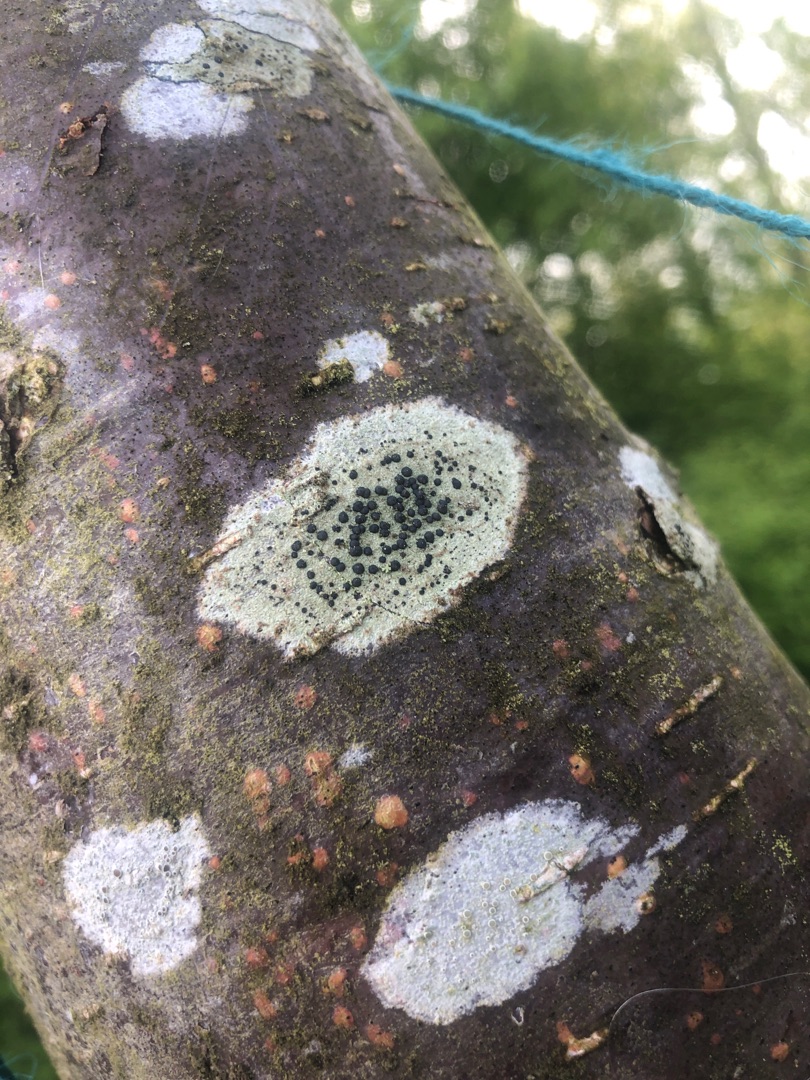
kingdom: Fungi
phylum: Ascomycota
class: Lecanoromycetes
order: Lecanorales
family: Lecanoraceae
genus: Lecidella
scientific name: Lecidella elaeochroma
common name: Grågrøn skivelav
